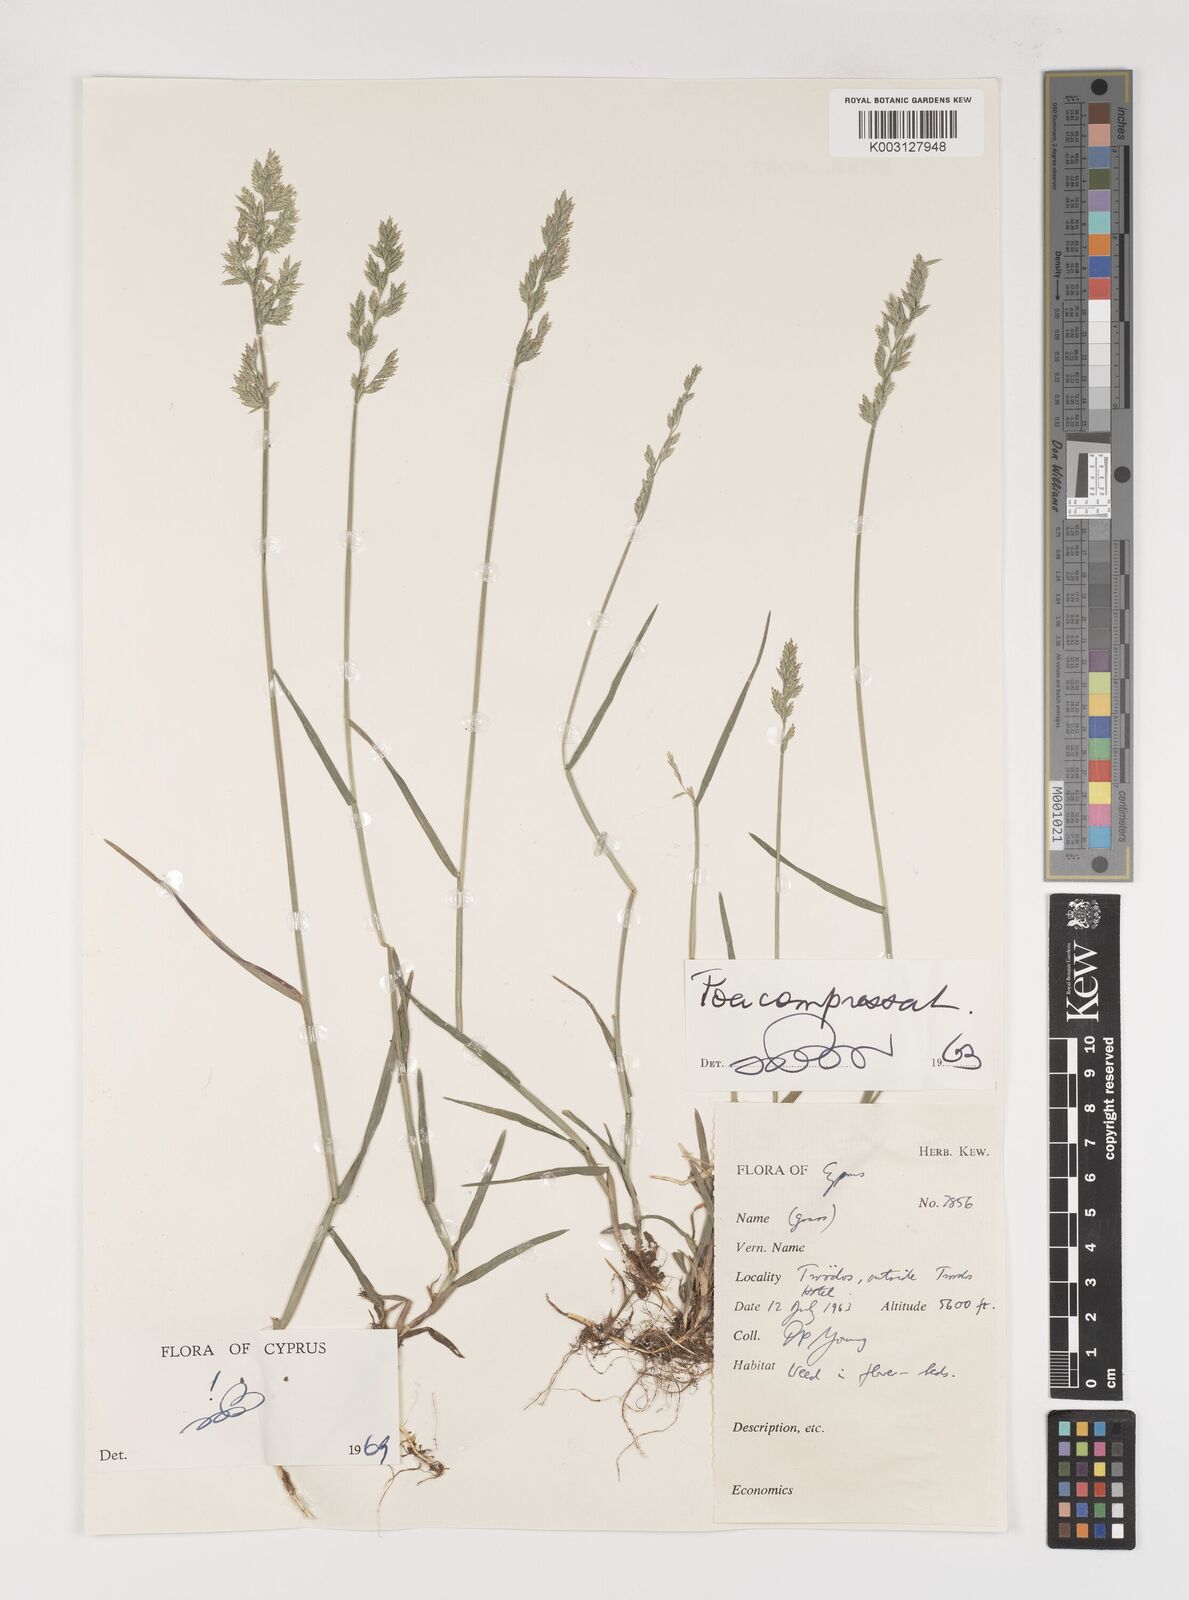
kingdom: Plantae
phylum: Tracheophyta
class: Liliopsida
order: Poales
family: Poaceae
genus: Poa
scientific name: Poa compressa
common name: Canada bluegrass
